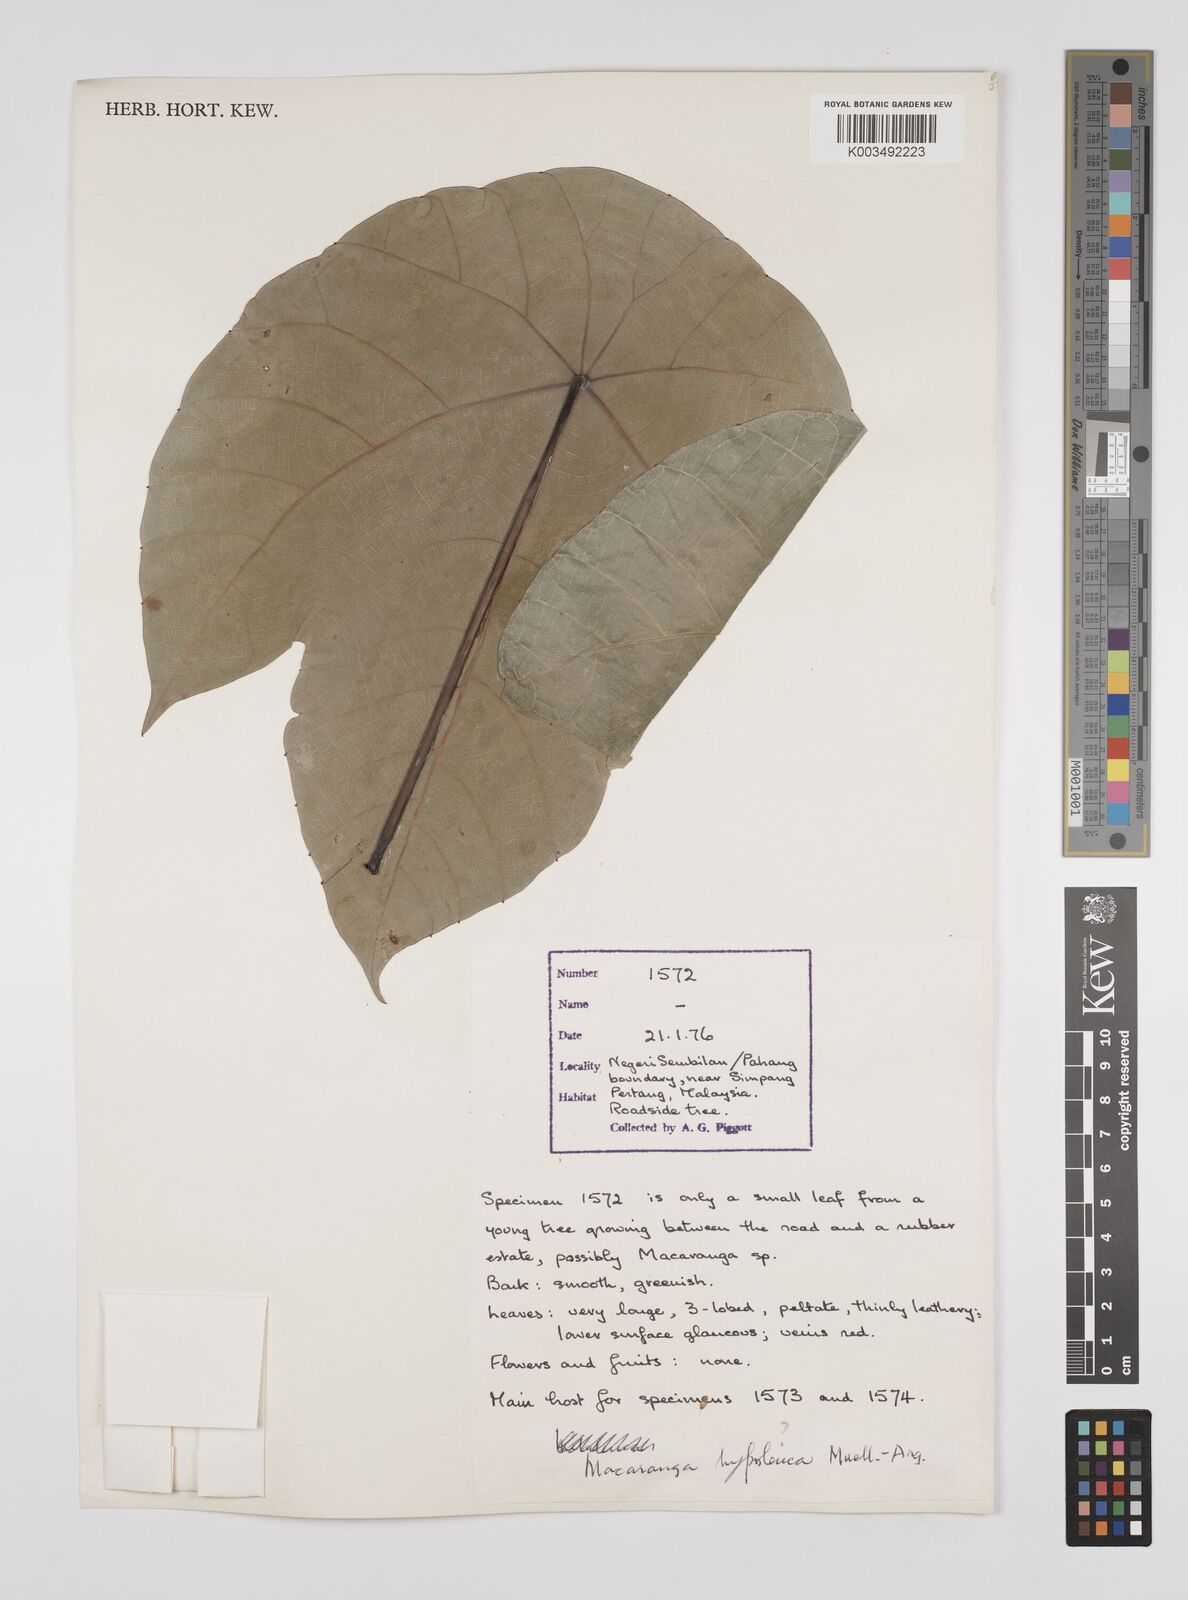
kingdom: Plantae
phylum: Tracheophyta
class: Magnoliopsida
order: Malpighiales
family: Euphorbiaceae
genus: Macaranga
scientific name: Macaranga hypoleuca
